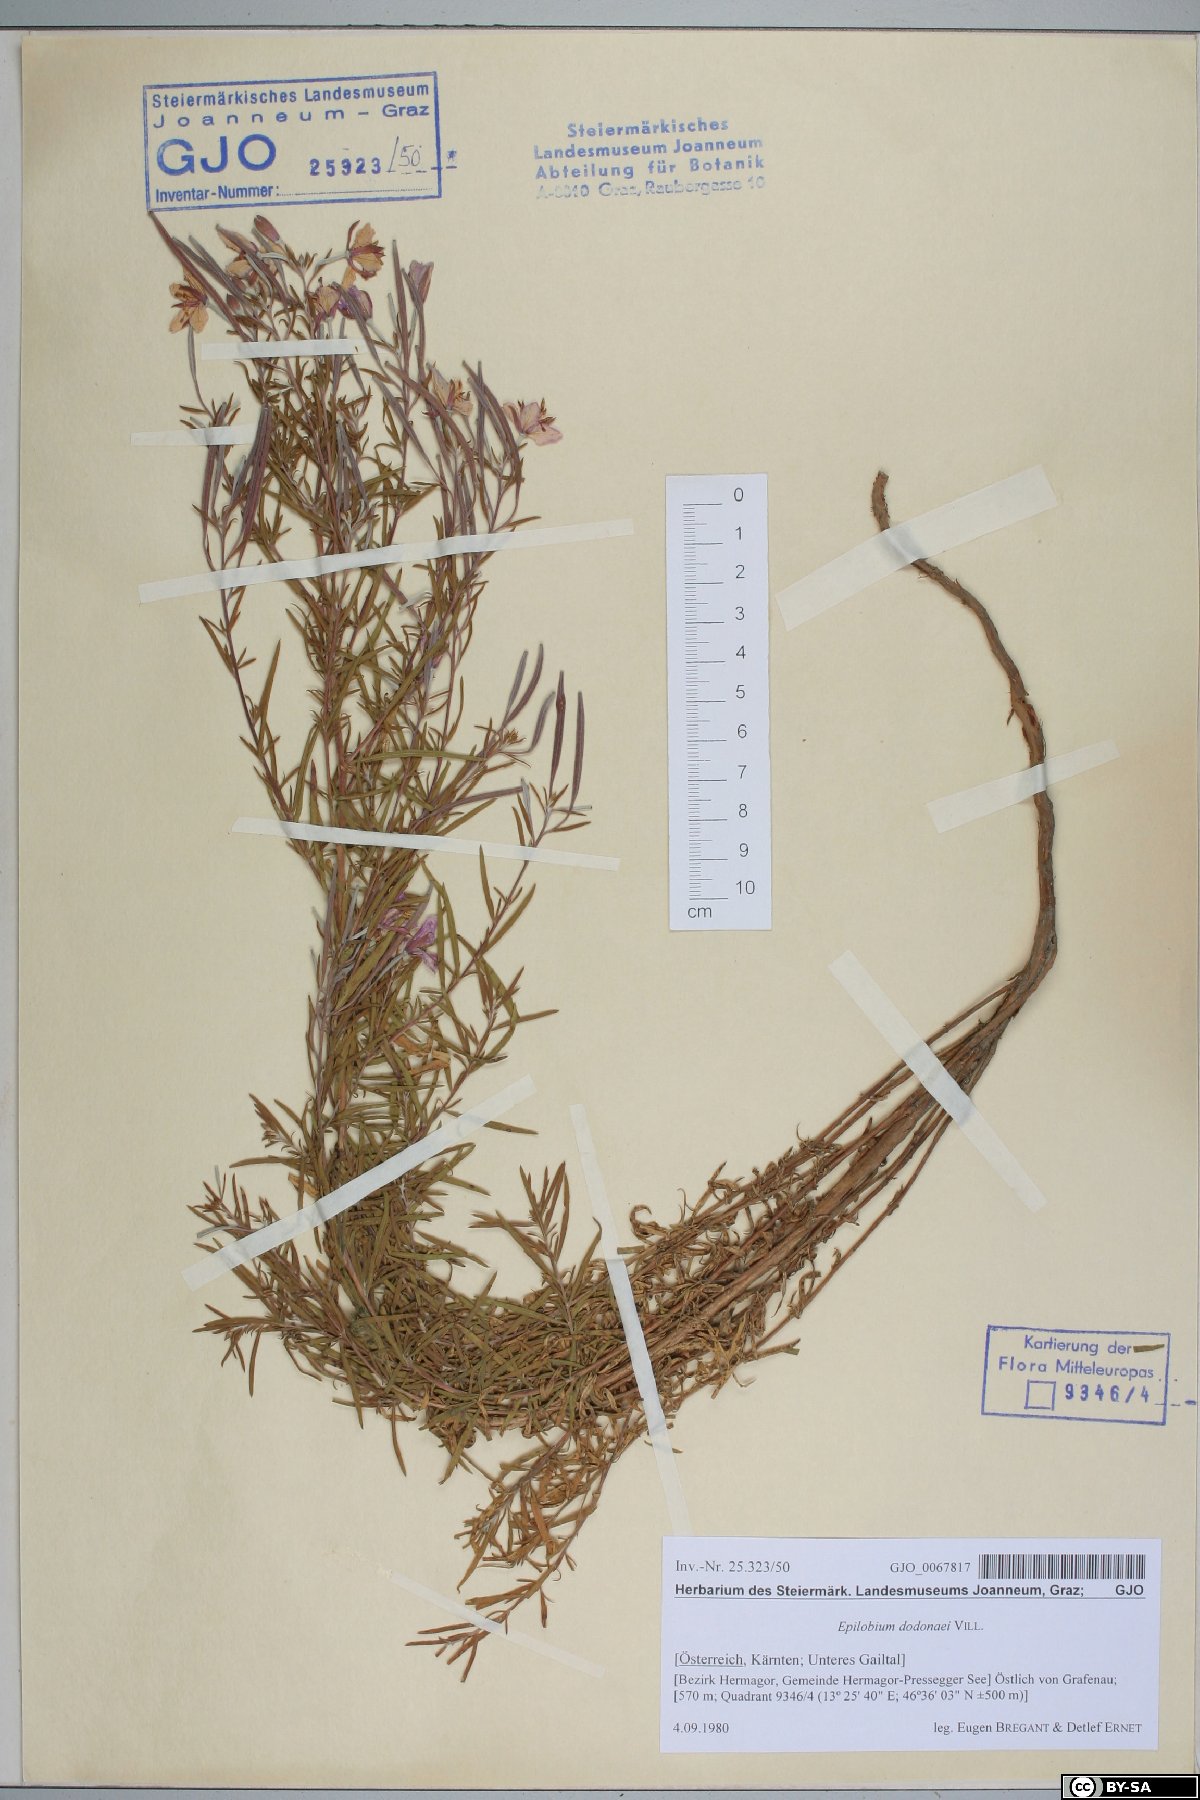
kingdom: Plantae
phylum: Tracheophyta
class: Magnoliopsida
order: Myrtales
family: Onagraceae
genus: Chamaenerion
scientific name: Chamaenerion dodonaei
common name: Rosemary-leaved willowherb
